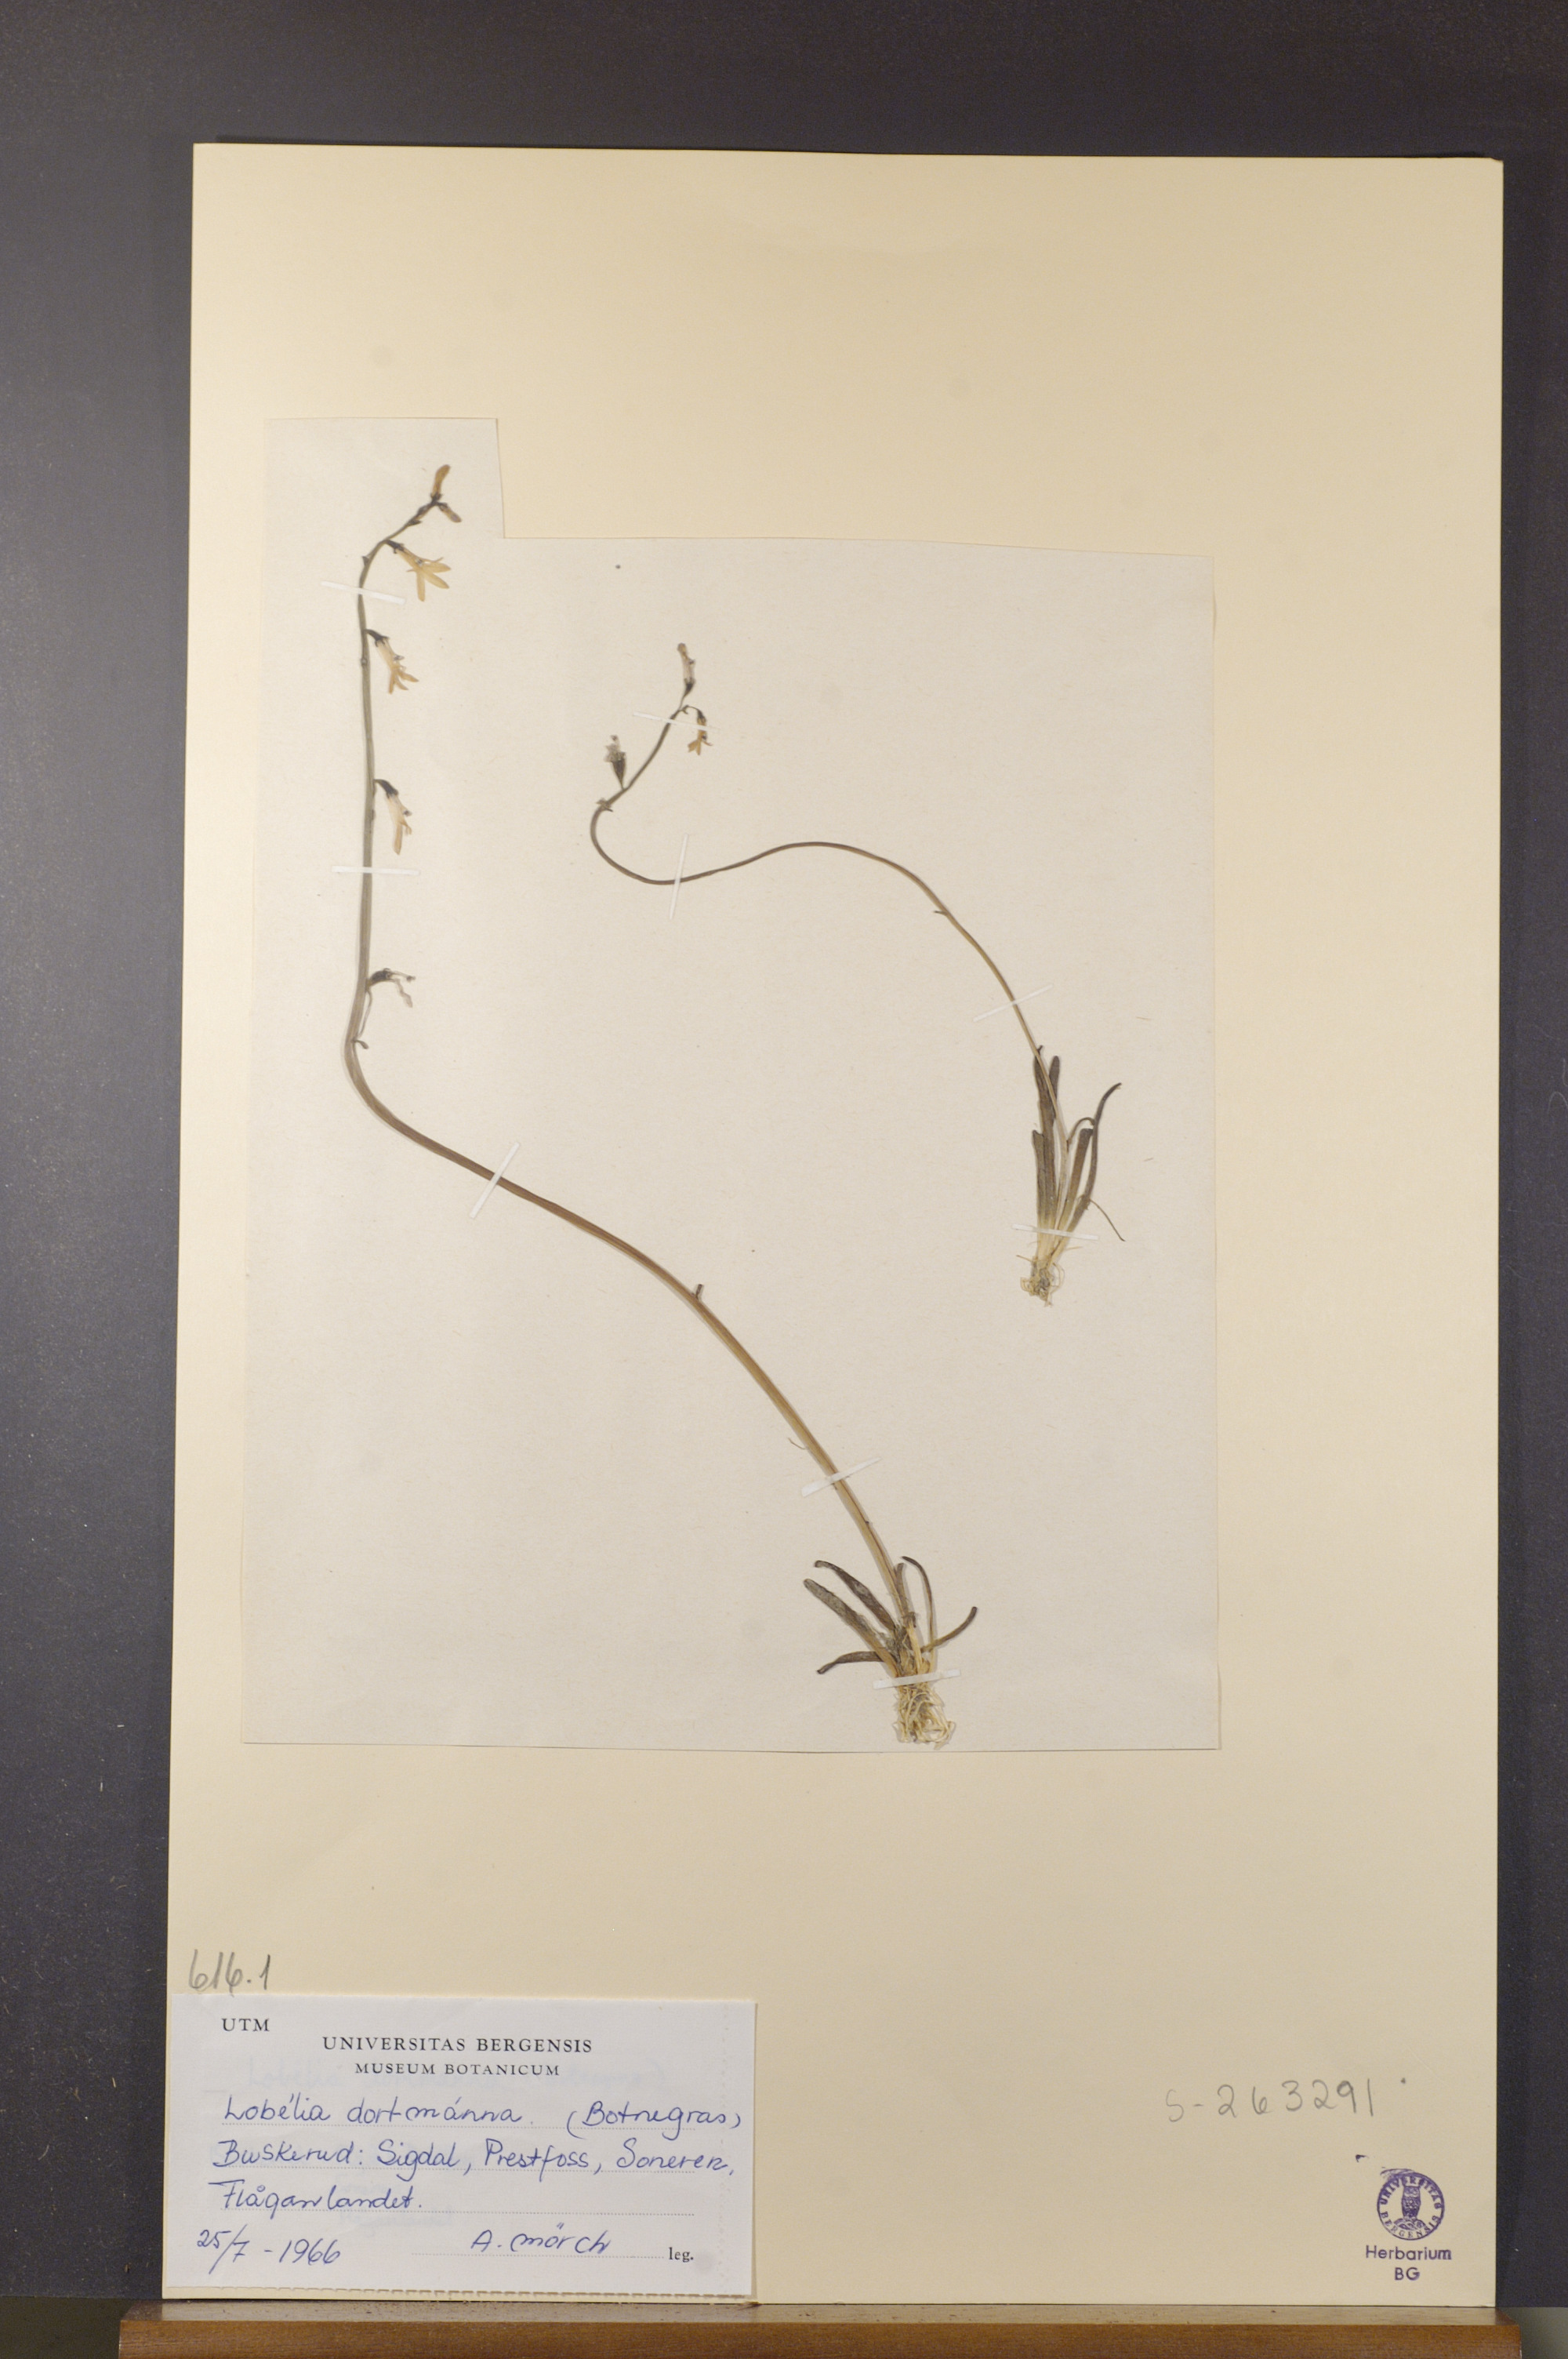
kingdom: Plantae
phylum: Tracheophyta
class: Magnoliopsida
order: Asterales
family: Campanulaceae
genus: Lobelia
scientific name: Lobelia dortmanna
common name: Water lobelia
